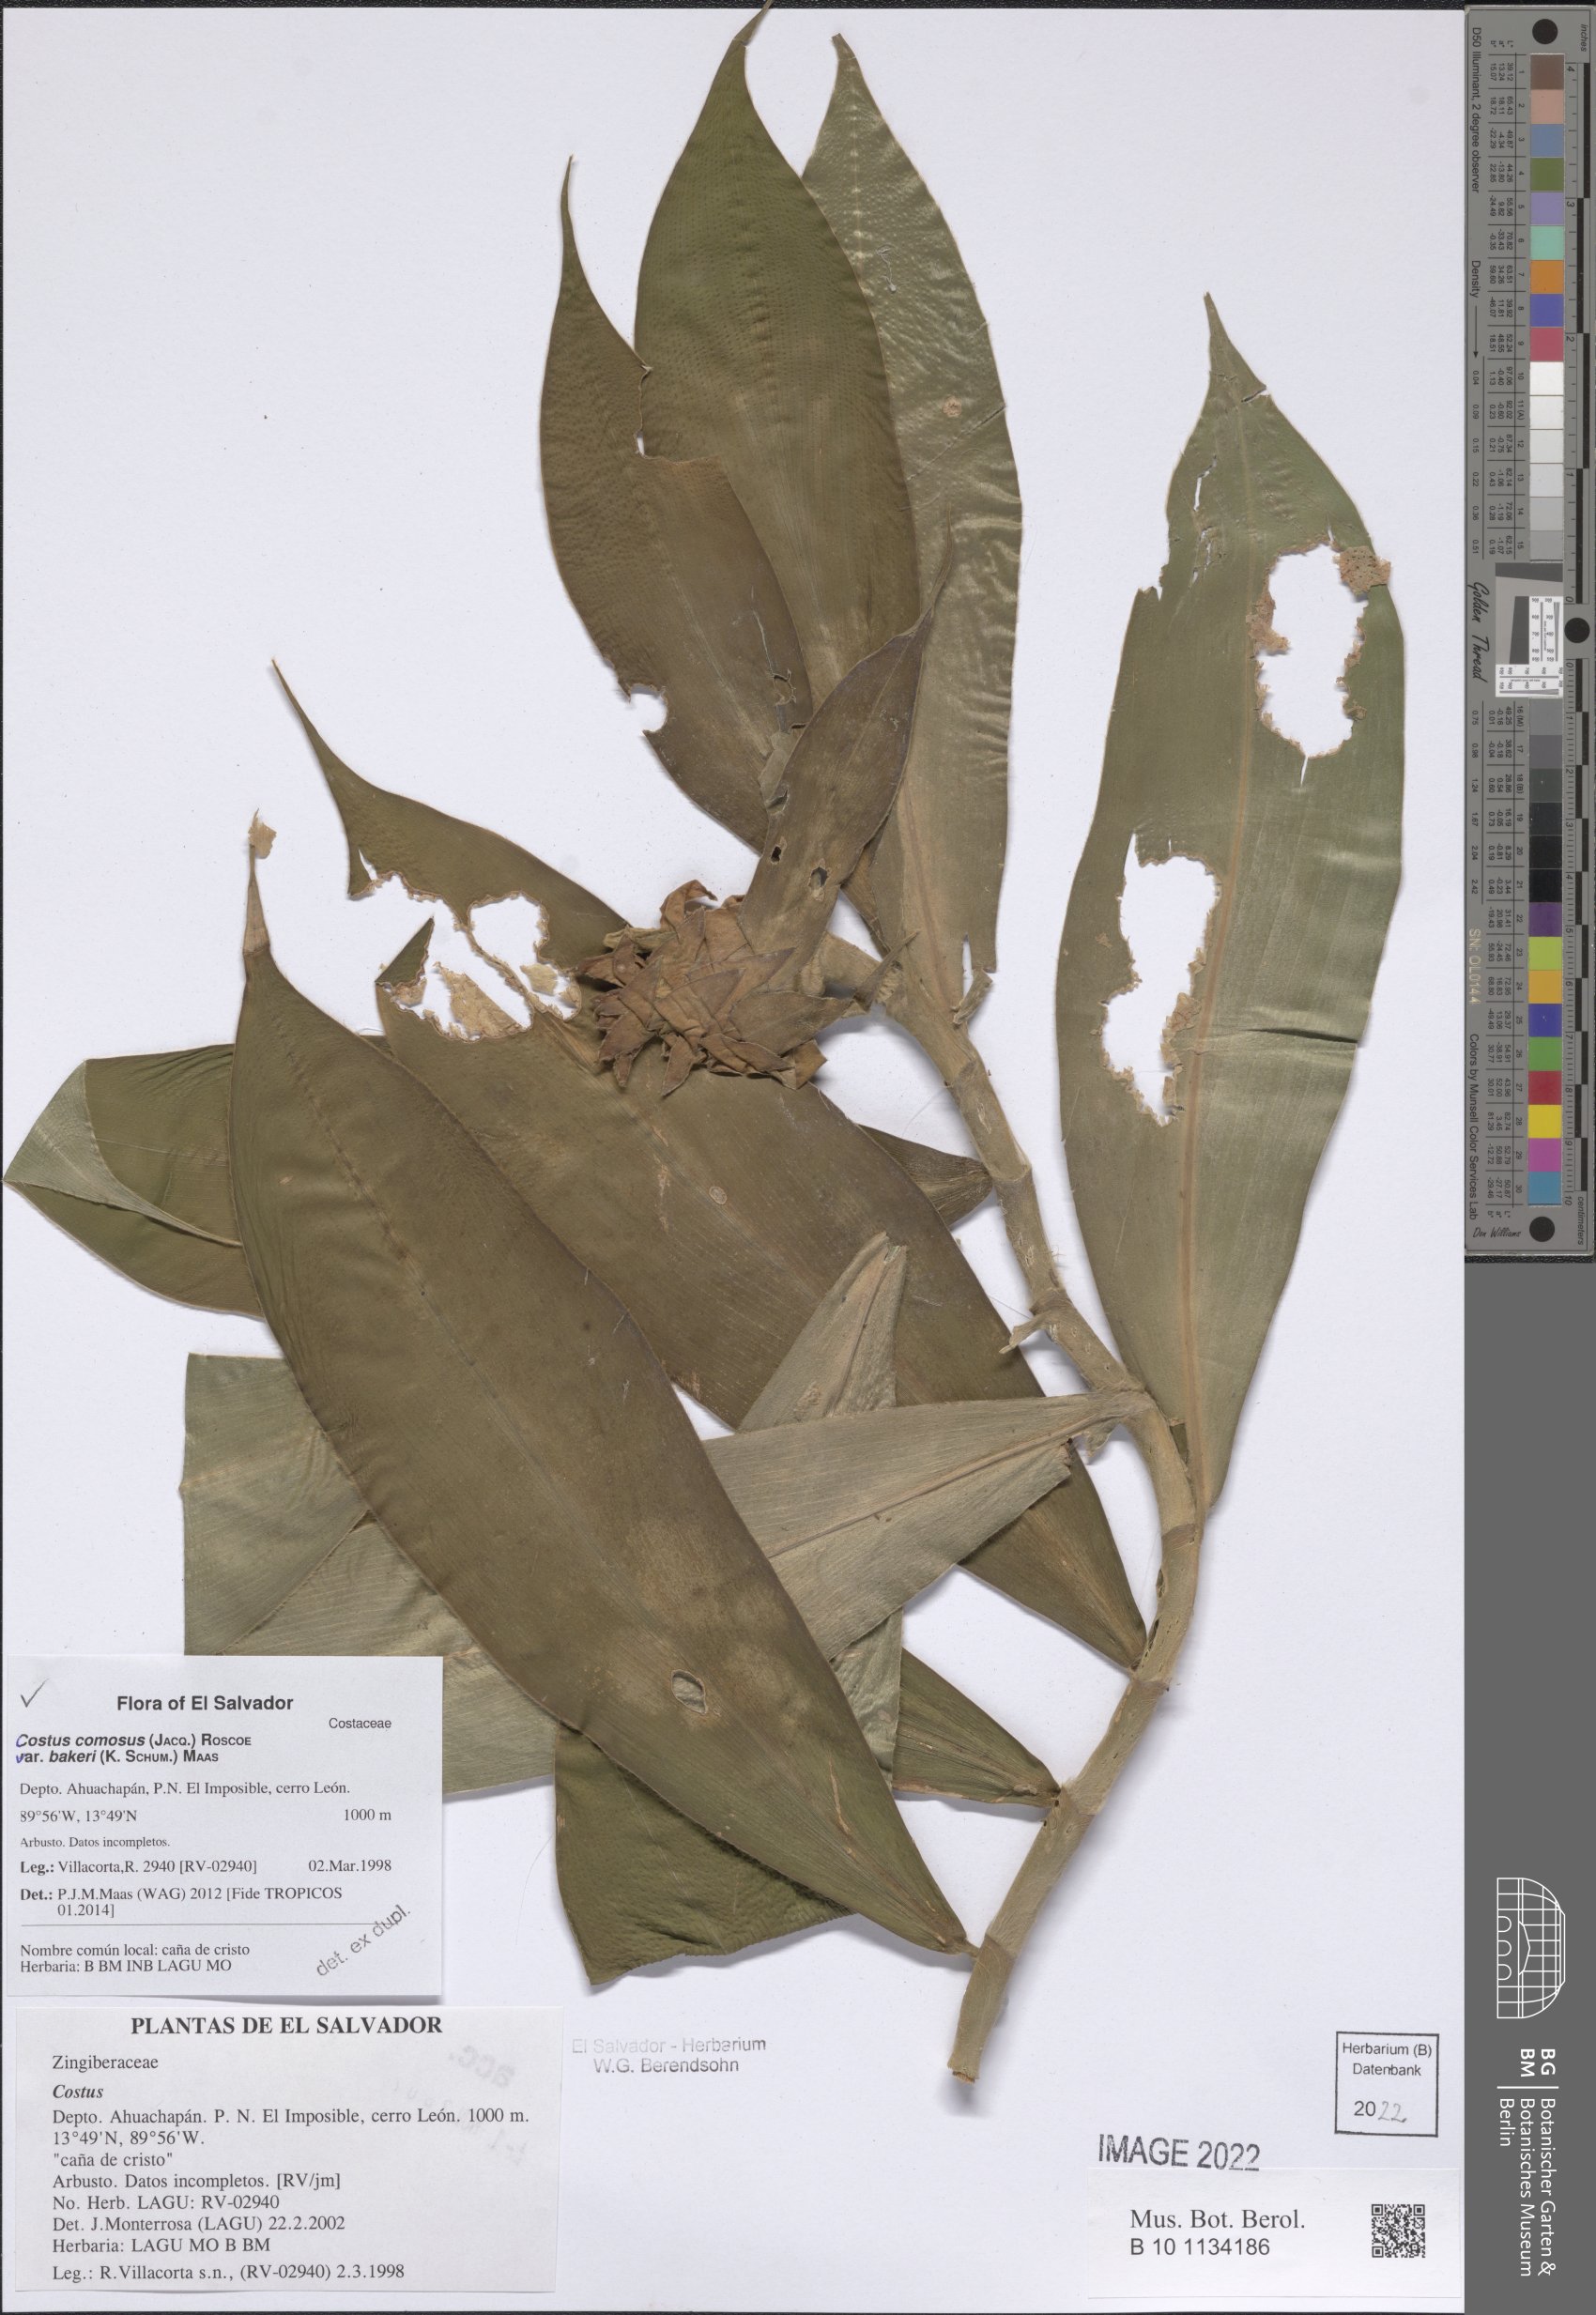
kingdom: Plantae
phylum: Tracheophyta
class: Liliopsida
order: Zingiberales
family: Costaceae
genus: Costus
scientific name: Costus comosus
